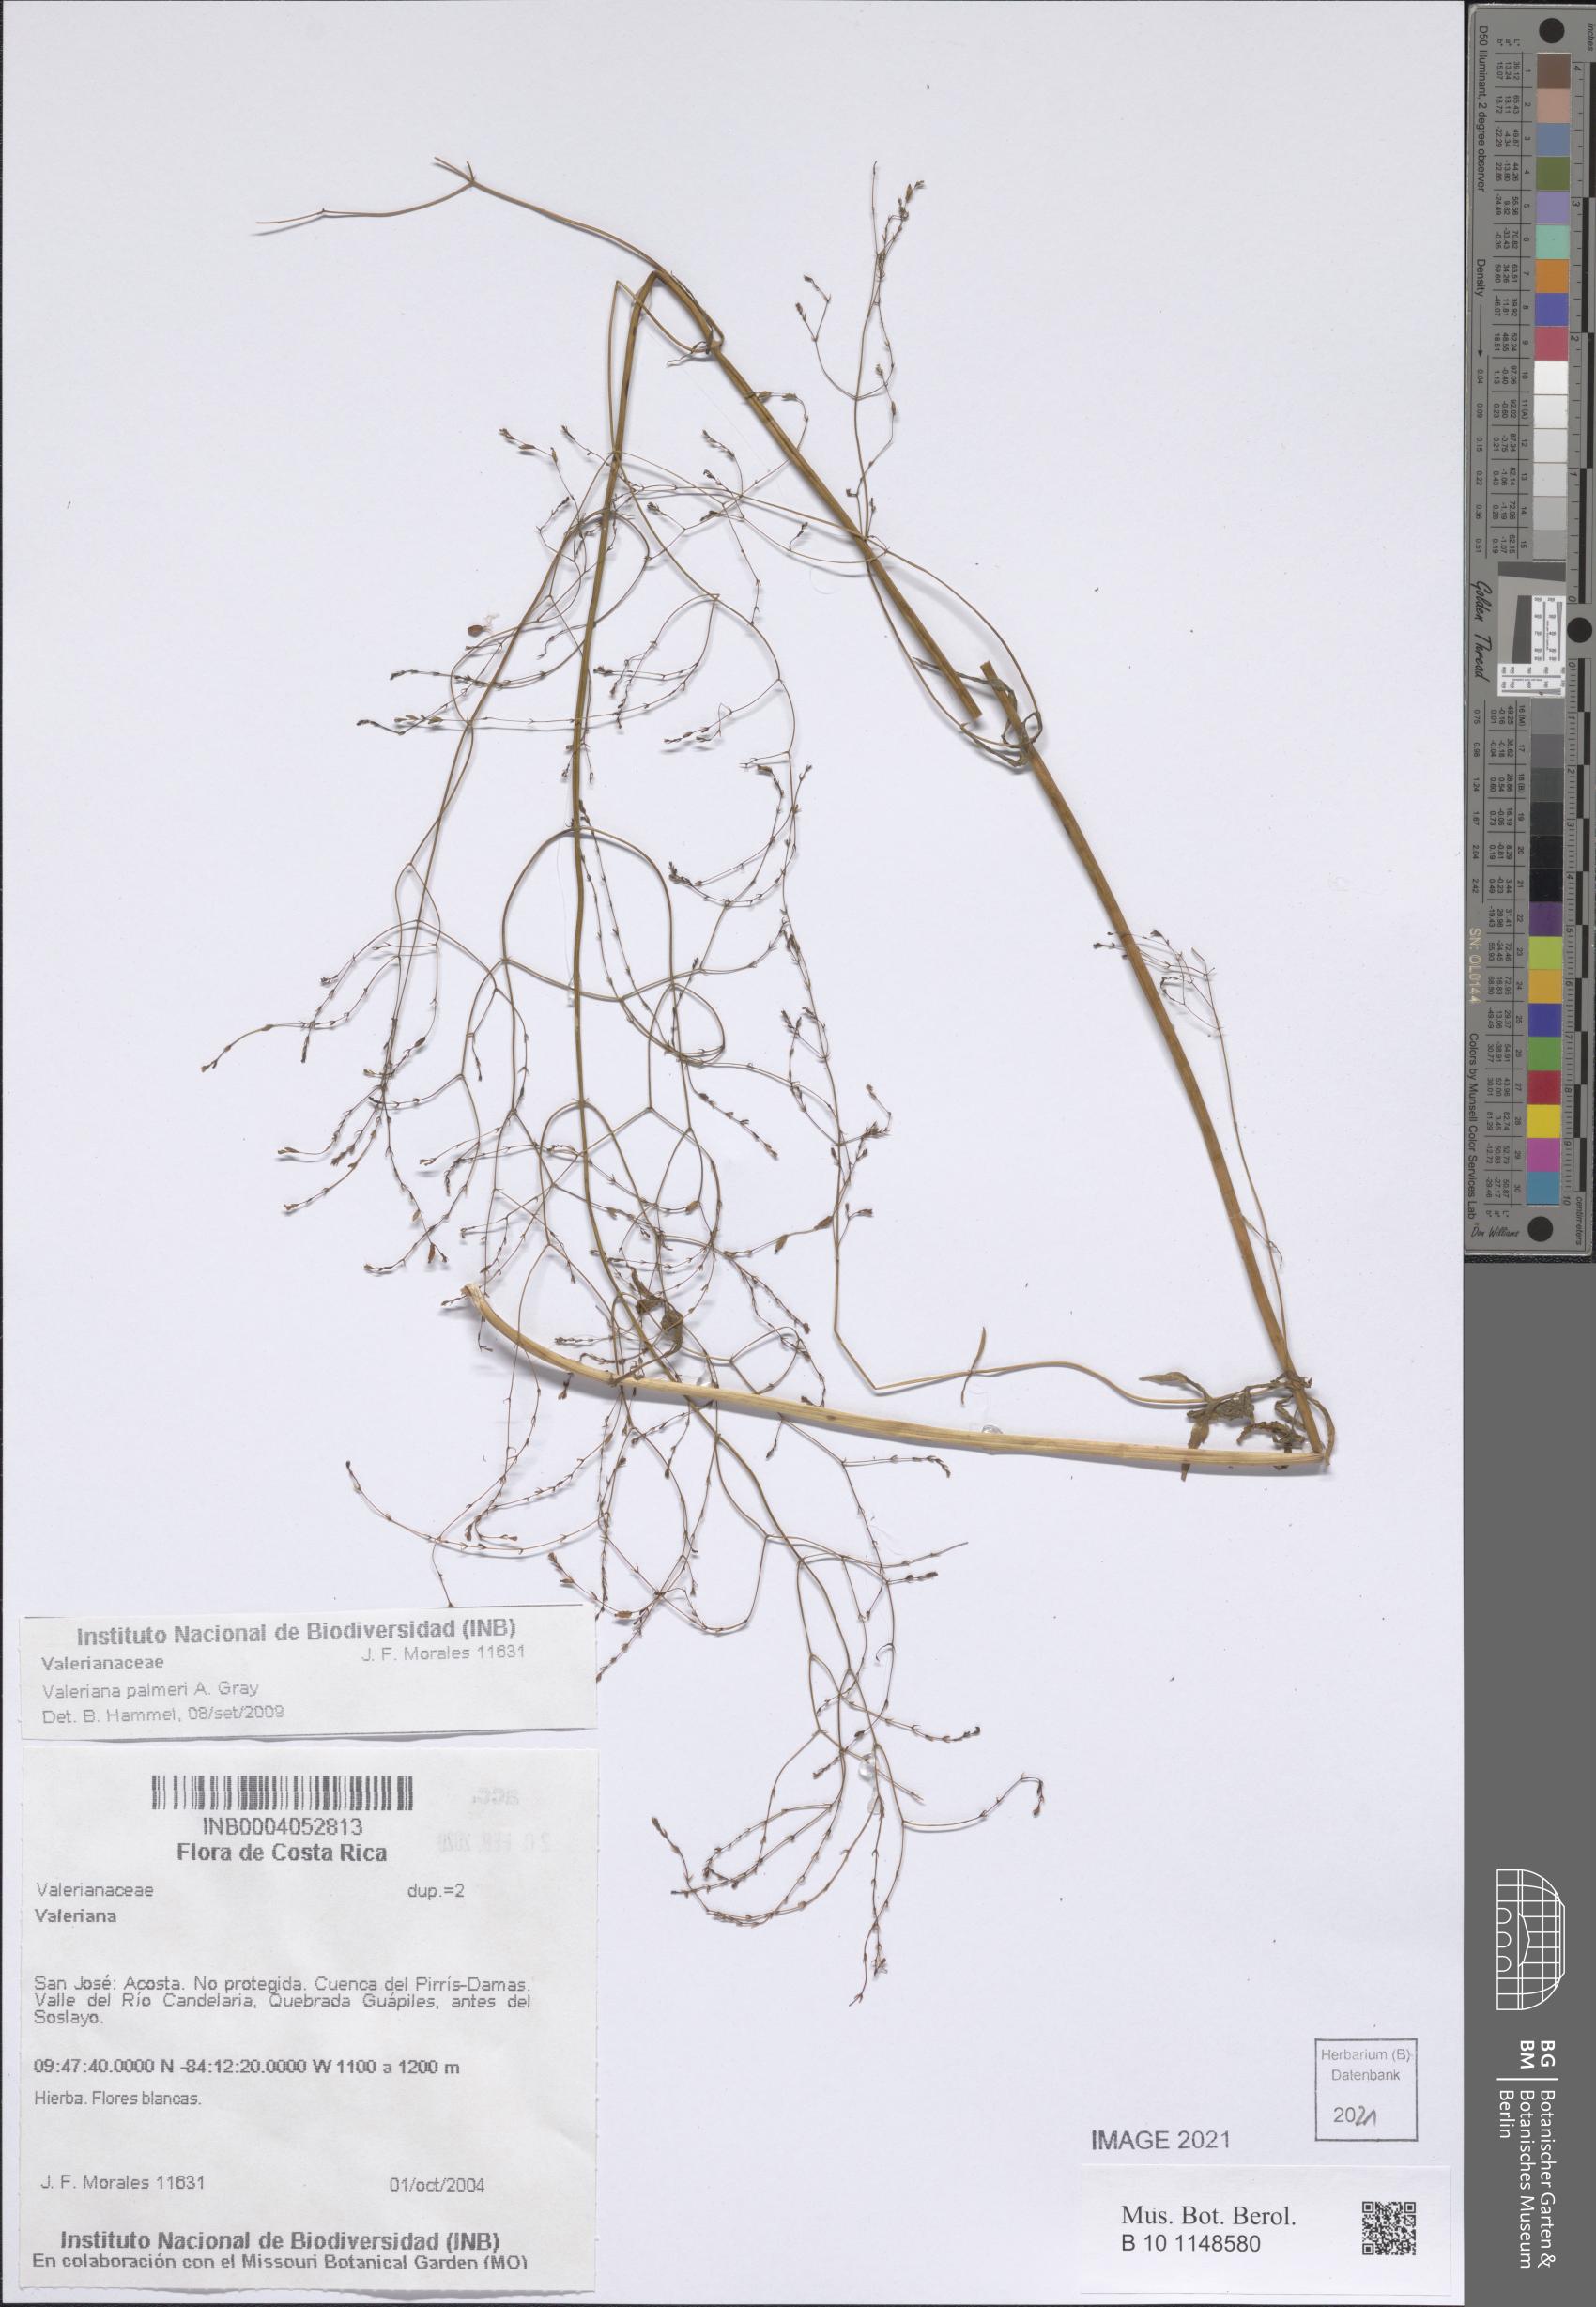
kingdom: Plantae
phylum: Tracheophyta
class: Magnoliopsida
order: Dipsacales
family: Caprifoliaceae
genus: Valeriana
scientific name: Valeriana palmeri
